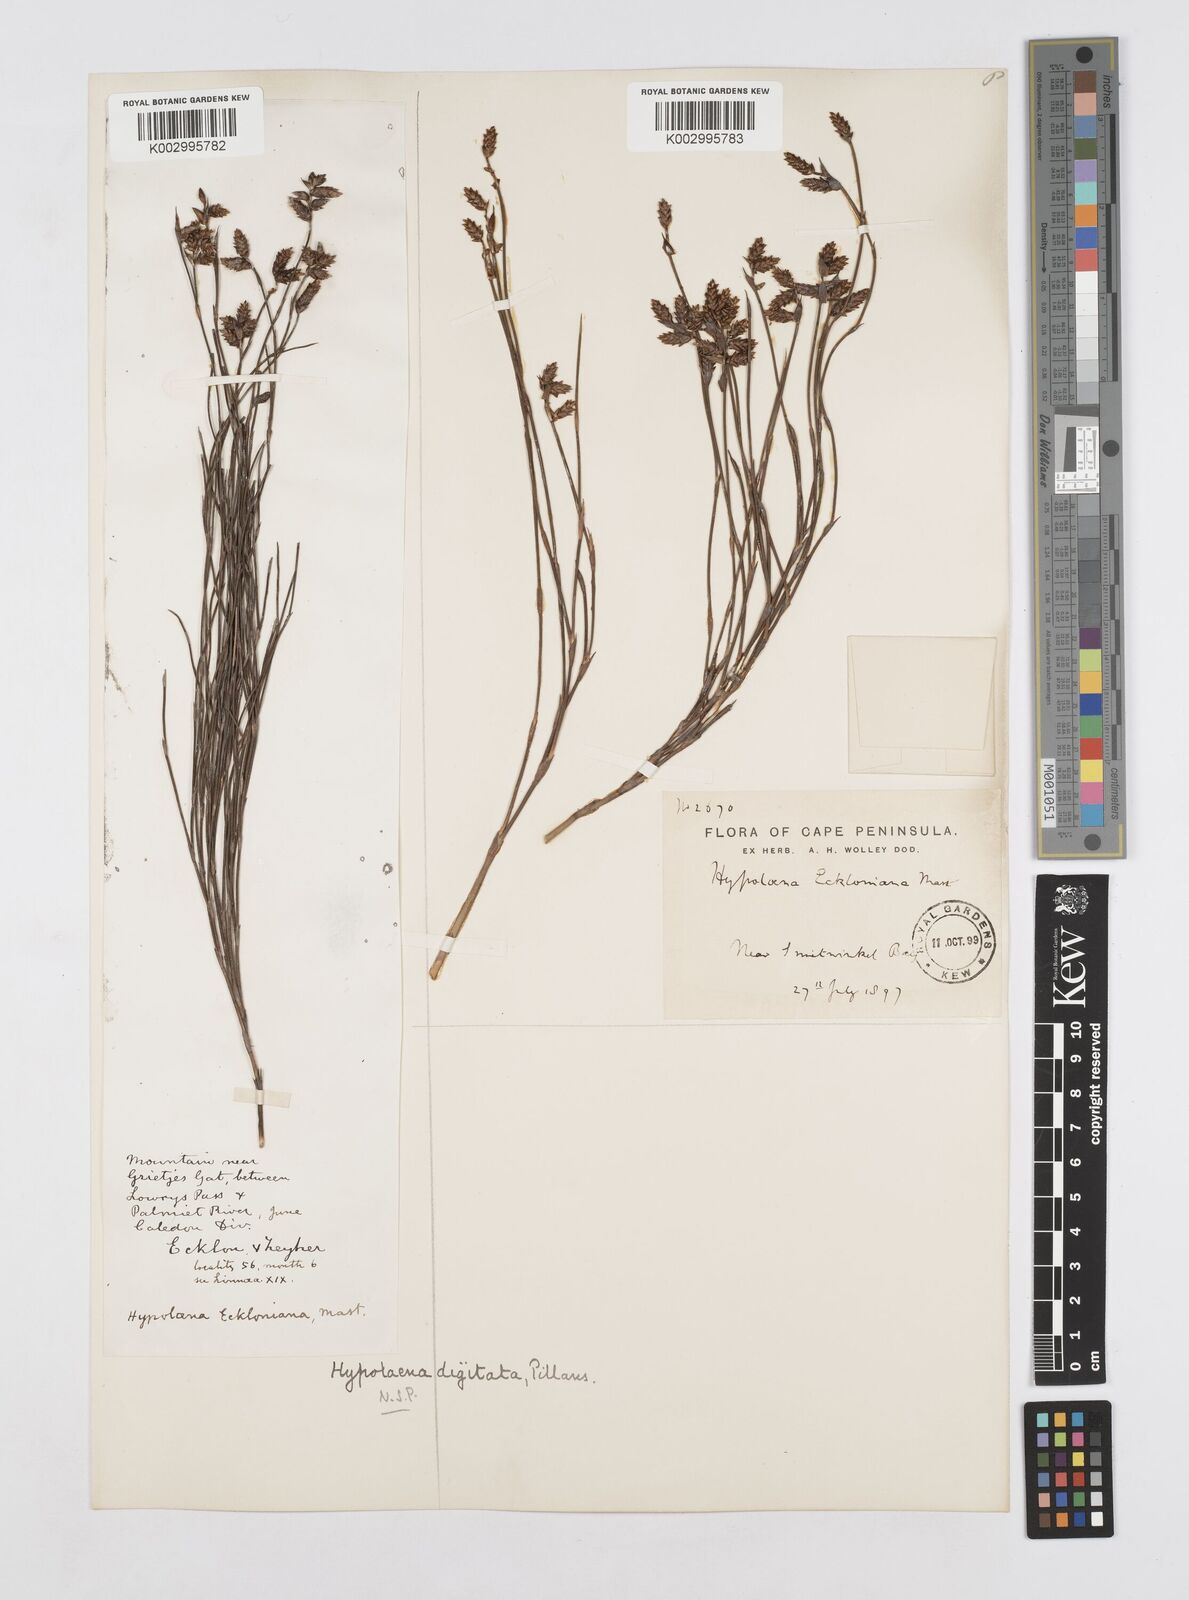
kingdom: Plantae
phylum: Tracheophyta
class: Liliopsida
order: Poales
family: Restionaceae
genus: Mastersiella
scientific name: Mastersiella digitata
